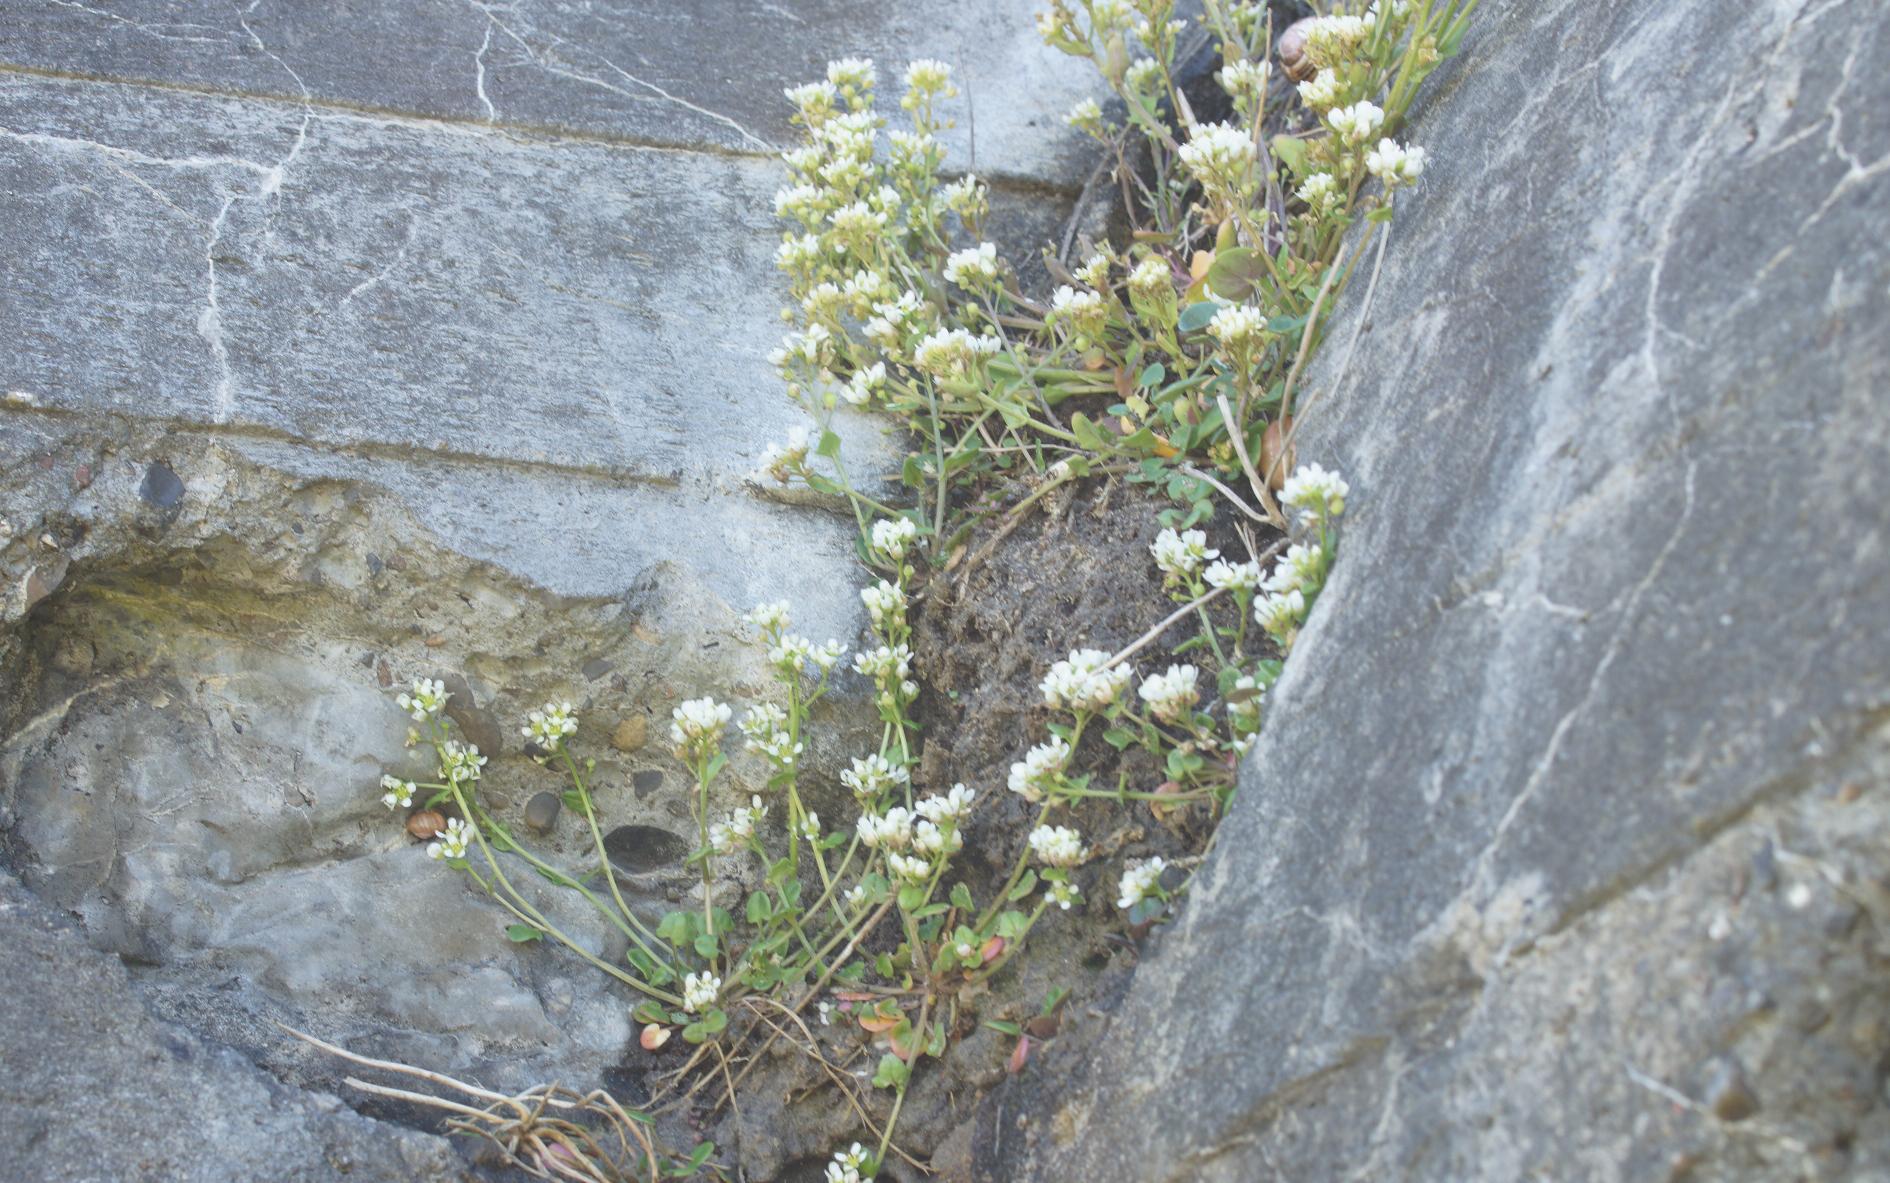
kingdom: Plantae
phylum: Tracheophyta
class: Magnoliopsida
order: Brassicales
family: Brassicaceae
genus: Cochlearia
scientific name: Cochlearia officinalis
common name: Læge-kokleare (underart)
